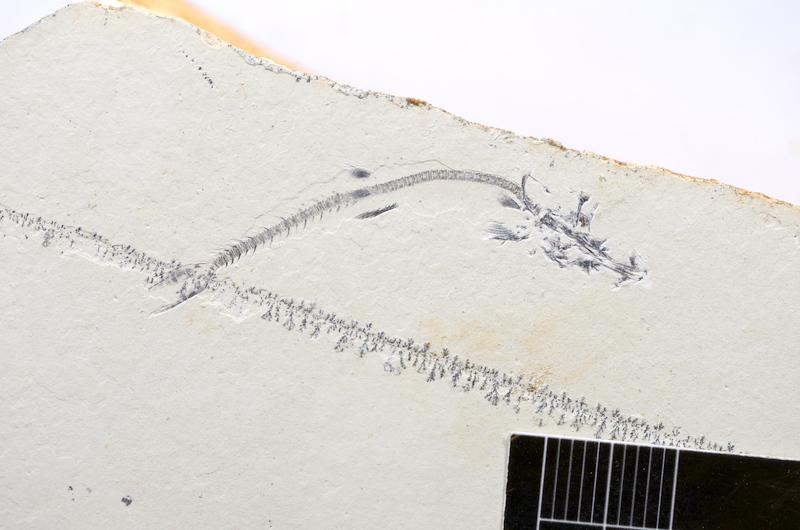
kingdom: Animalia
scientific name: Animalia
